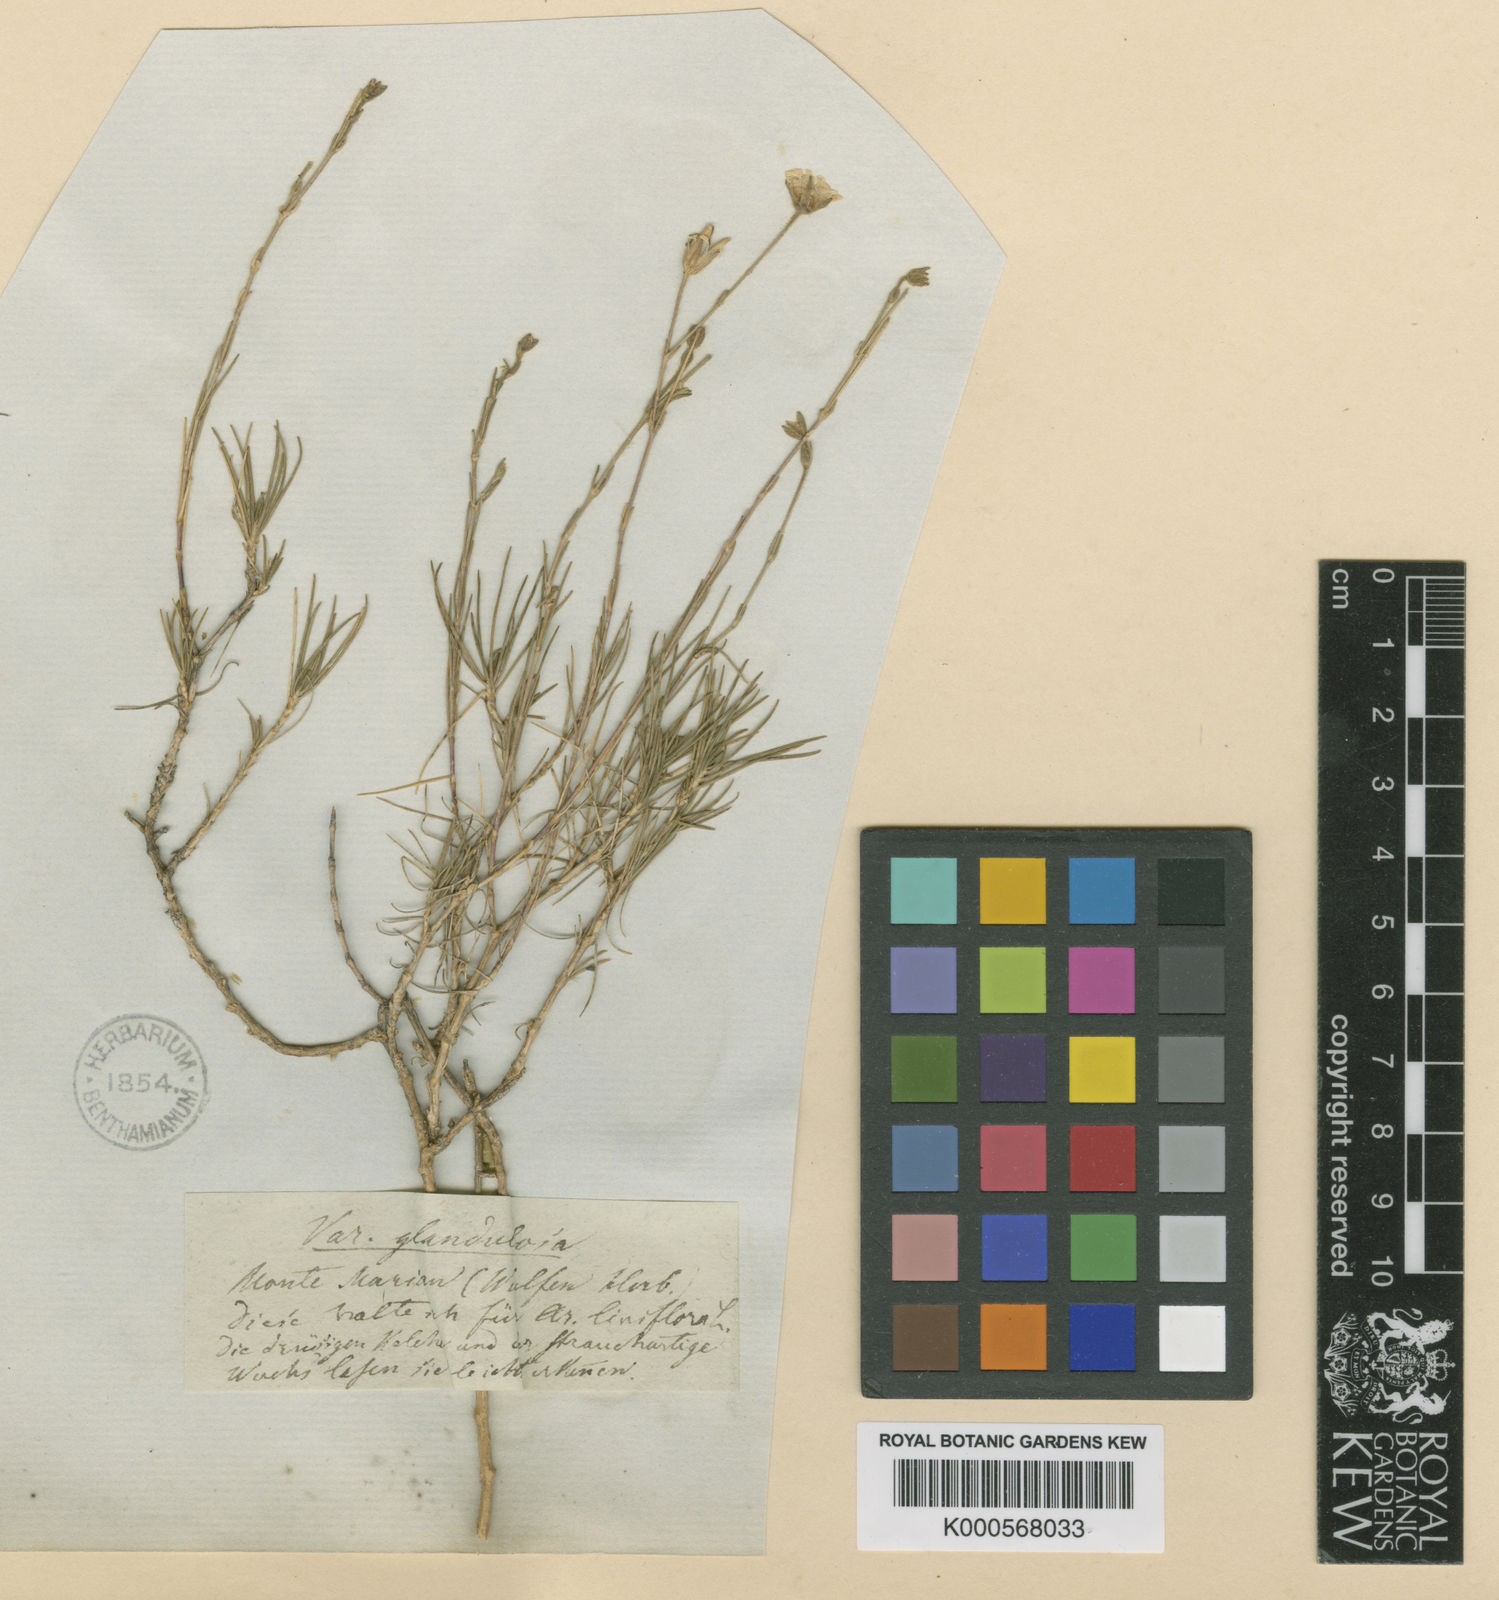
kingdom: Plantae
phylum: Tracheophyta
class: Magnoliopsida
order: Caryophyllales
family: Caryophyllaceae
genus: Cherleria
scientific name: Cherleria capillacea
